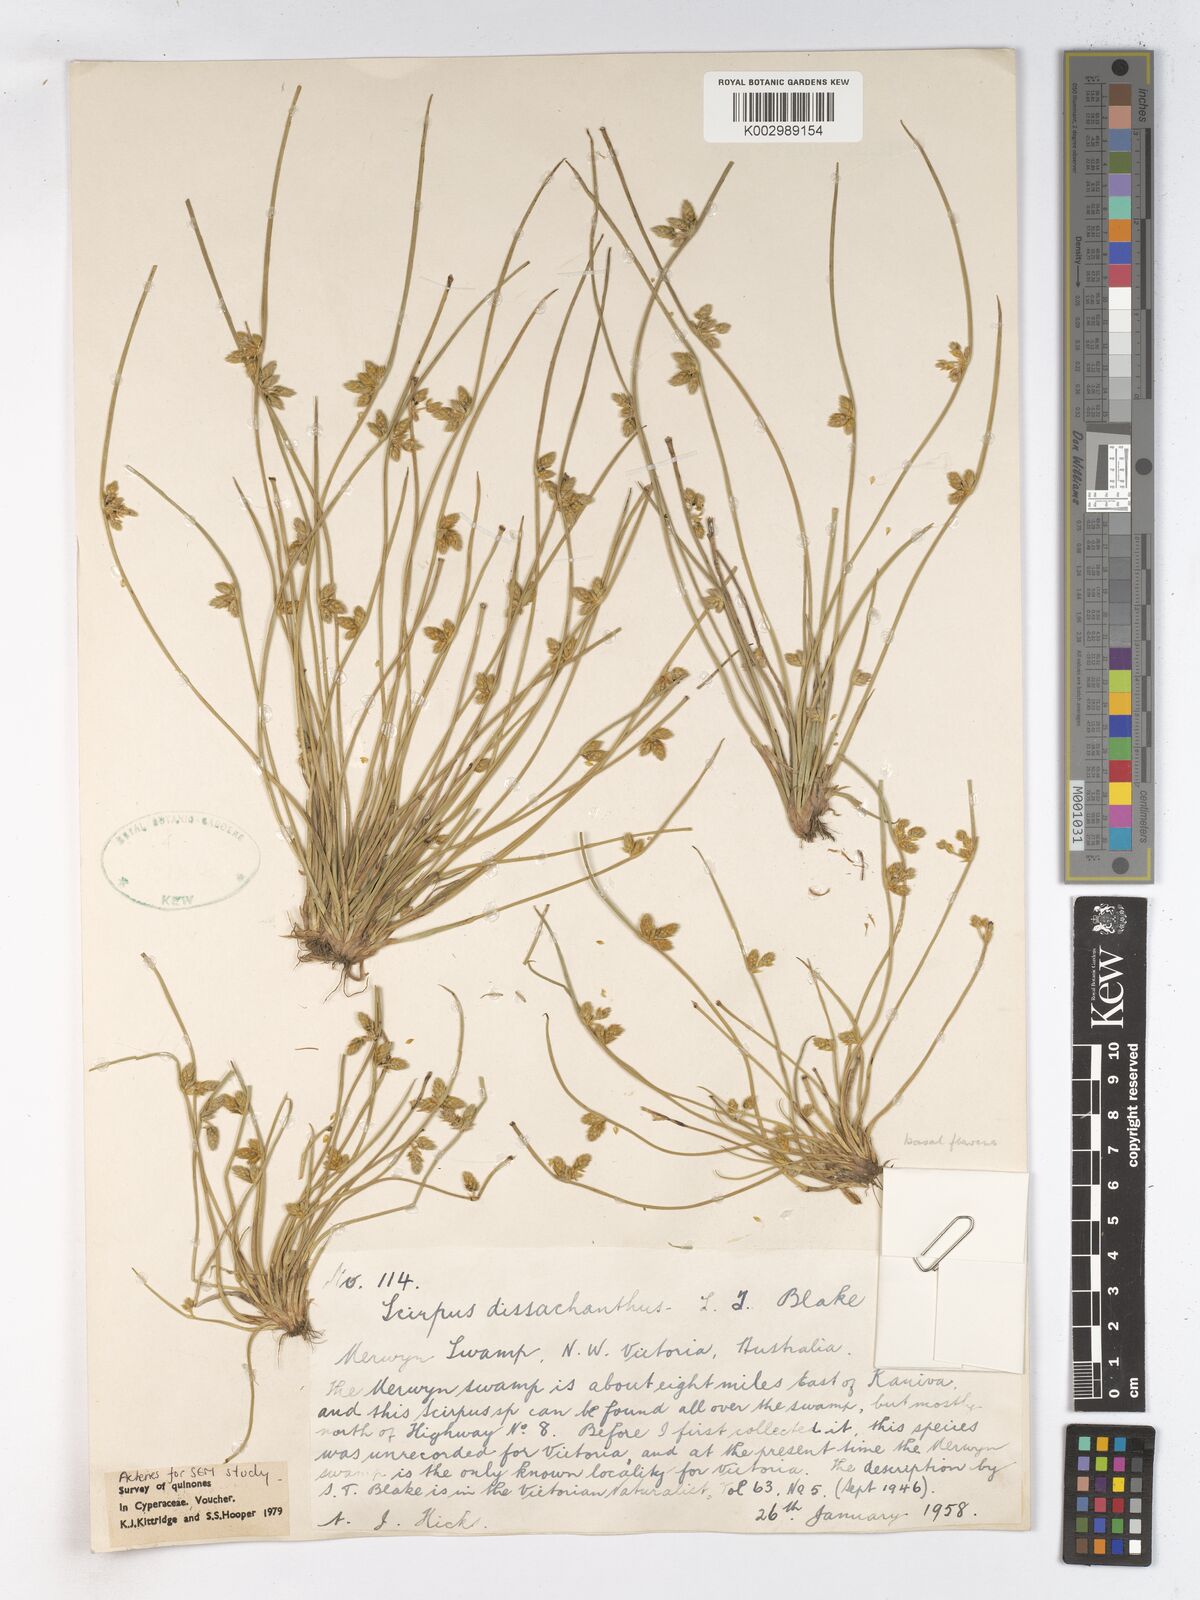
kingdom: Plantae
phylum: Tracheophyta
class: Liliopsida
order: Poales
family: Cyperaceae
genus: Schoenoplectiella
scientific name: Schoenoplectiella dissachantha
